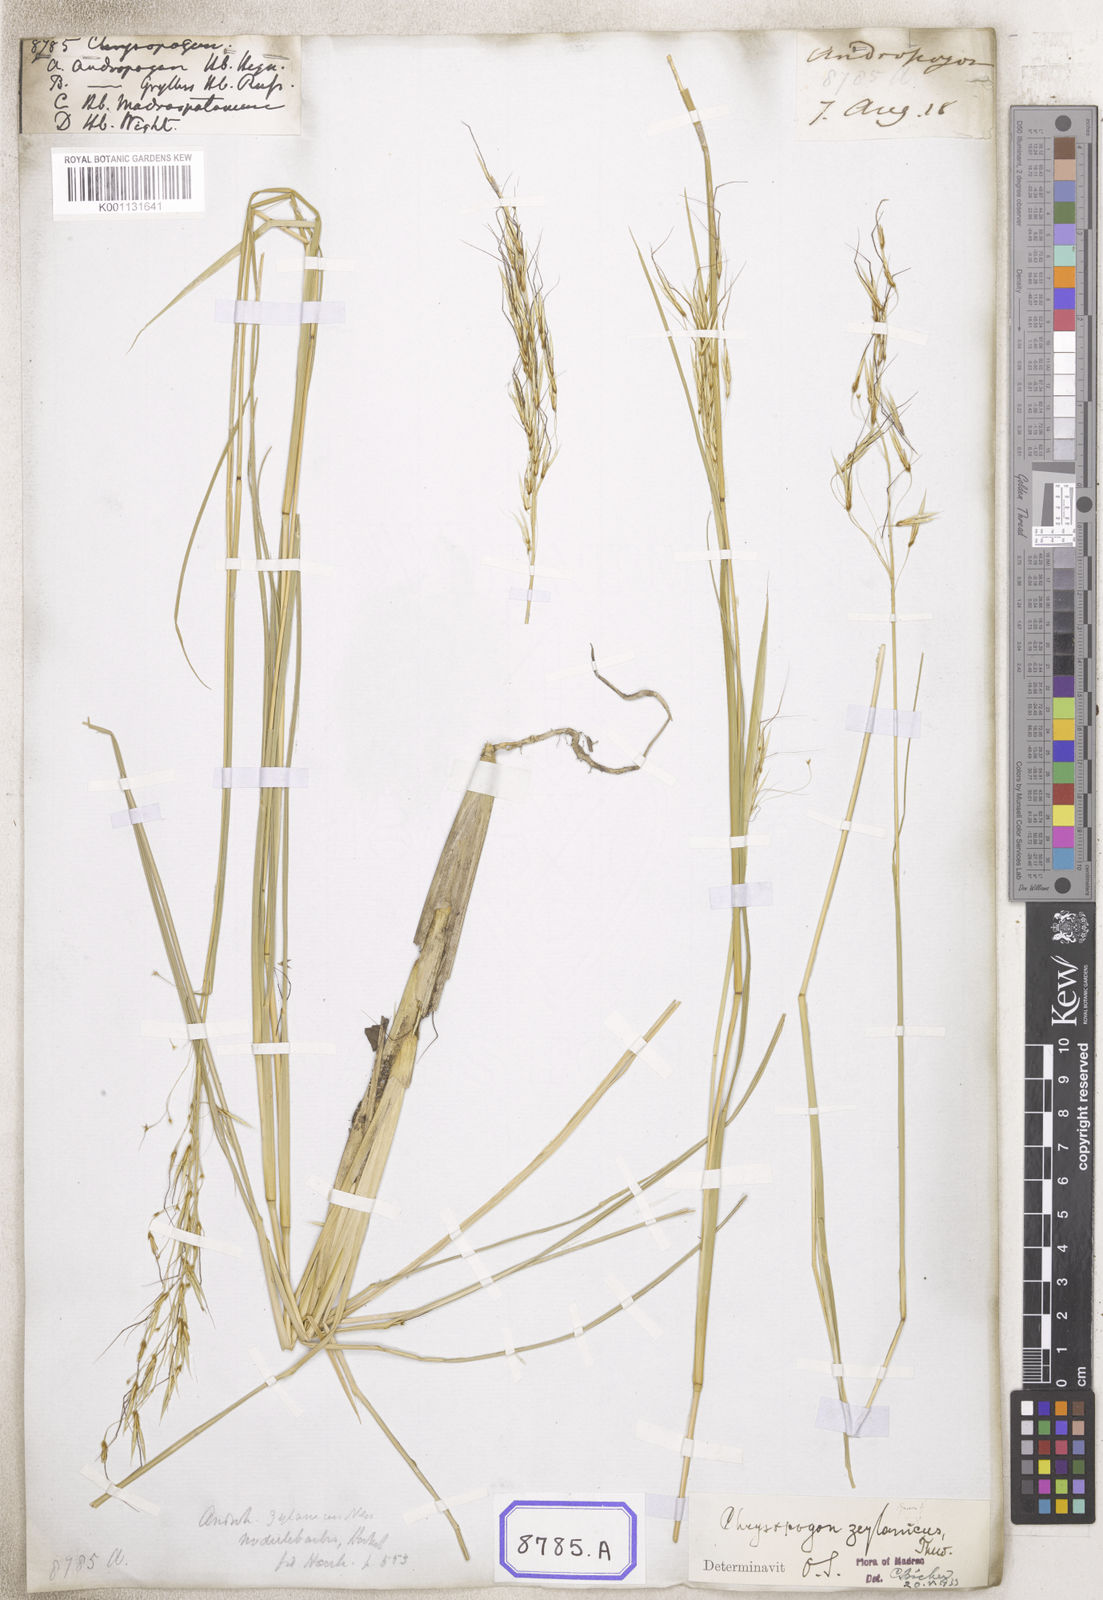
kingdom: Plantae
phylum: Tracheophyta
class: Liliopsida
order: Poales
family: Poaceae
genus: Chrysopogon
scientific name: Chrysopogon
